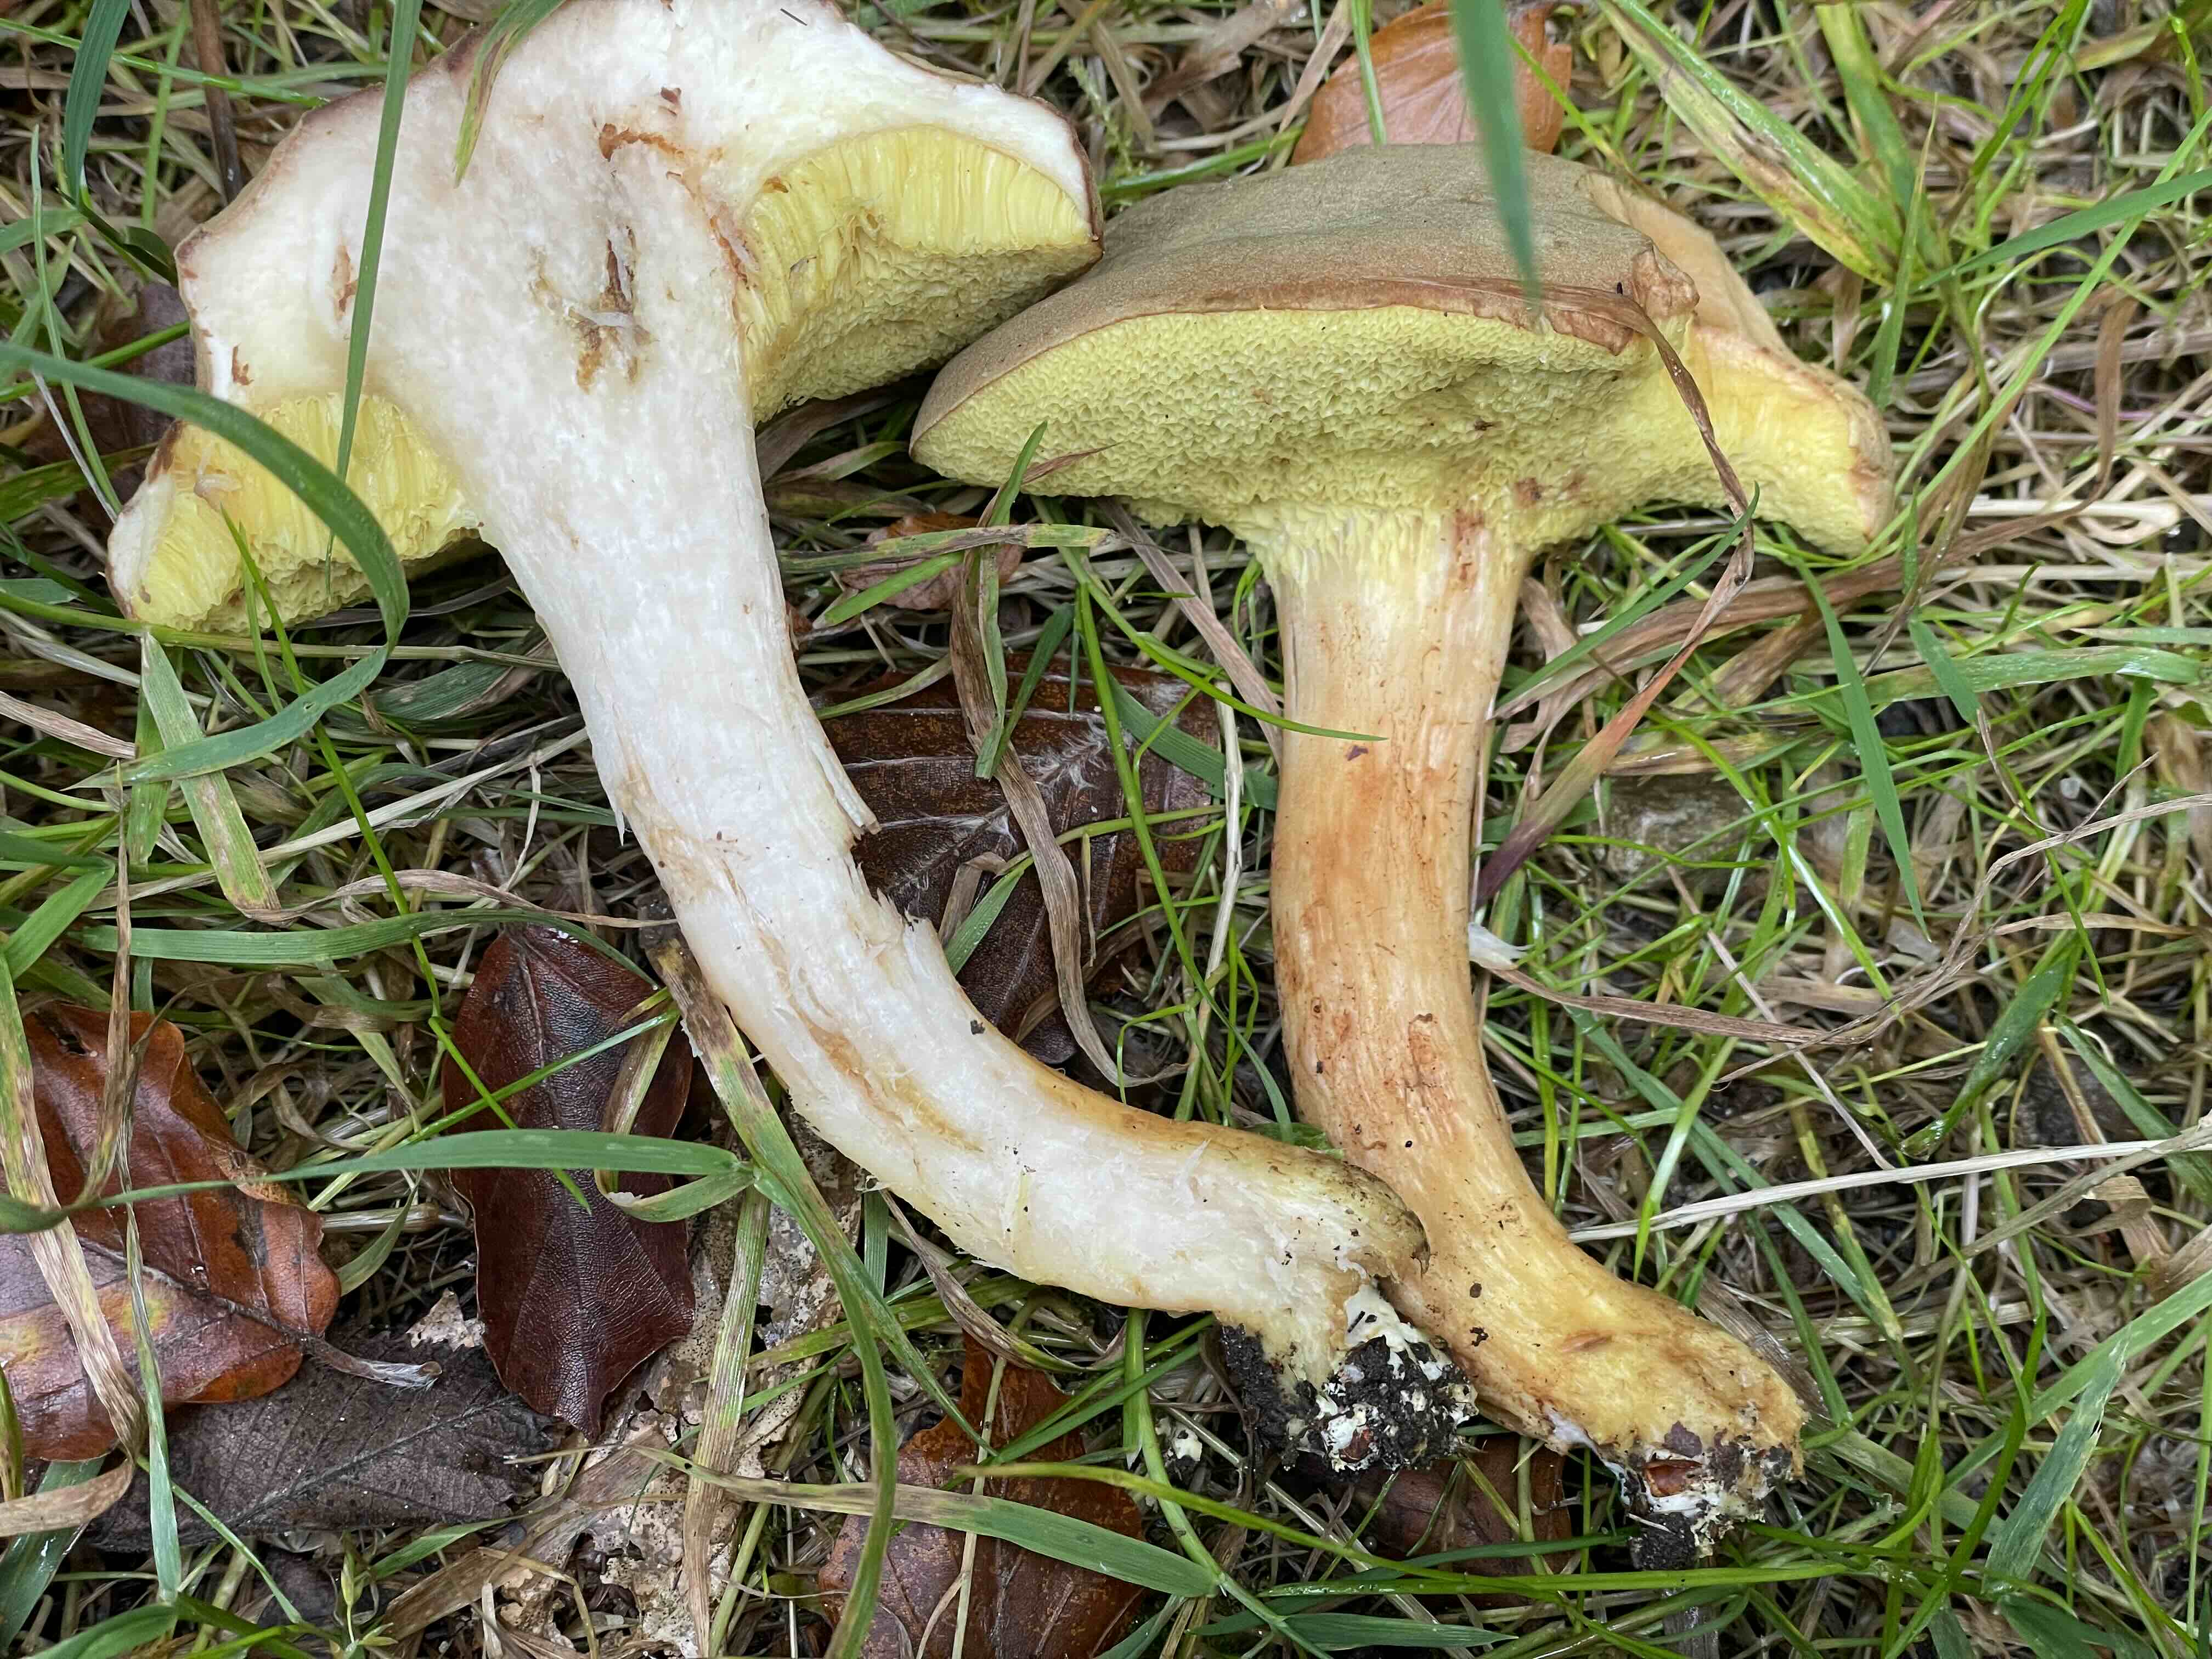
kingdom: Fungi
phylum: Basidiomycota
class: Agaricomycetes
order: Boletales
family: Boletaceae
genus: Xerocomus
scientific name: Xerocomus ferrugineus
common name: vaskeskinds-rørhat
